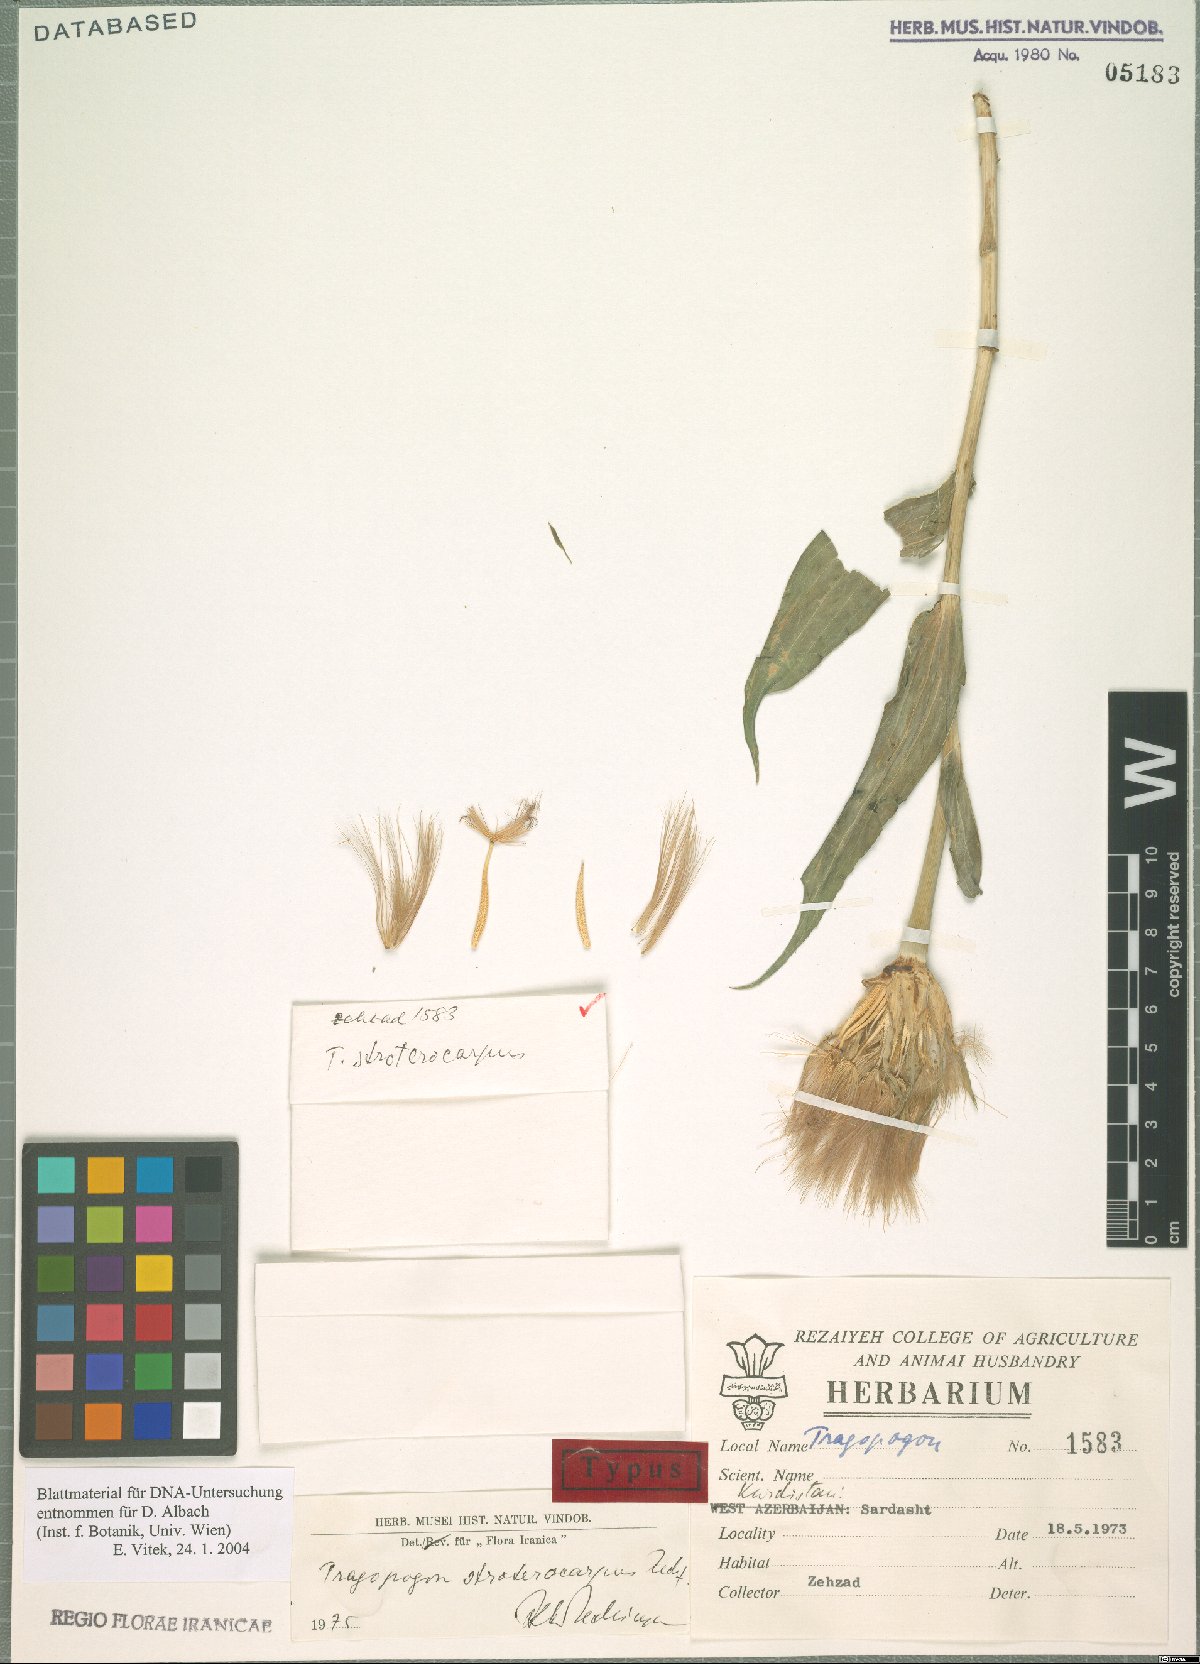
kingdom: Plantae
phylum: Tracheophyta
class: Magnoliopsida
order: Asterales
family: Asteraceae
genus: Tragopogon
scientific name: Tragopogon stroterocarpus
